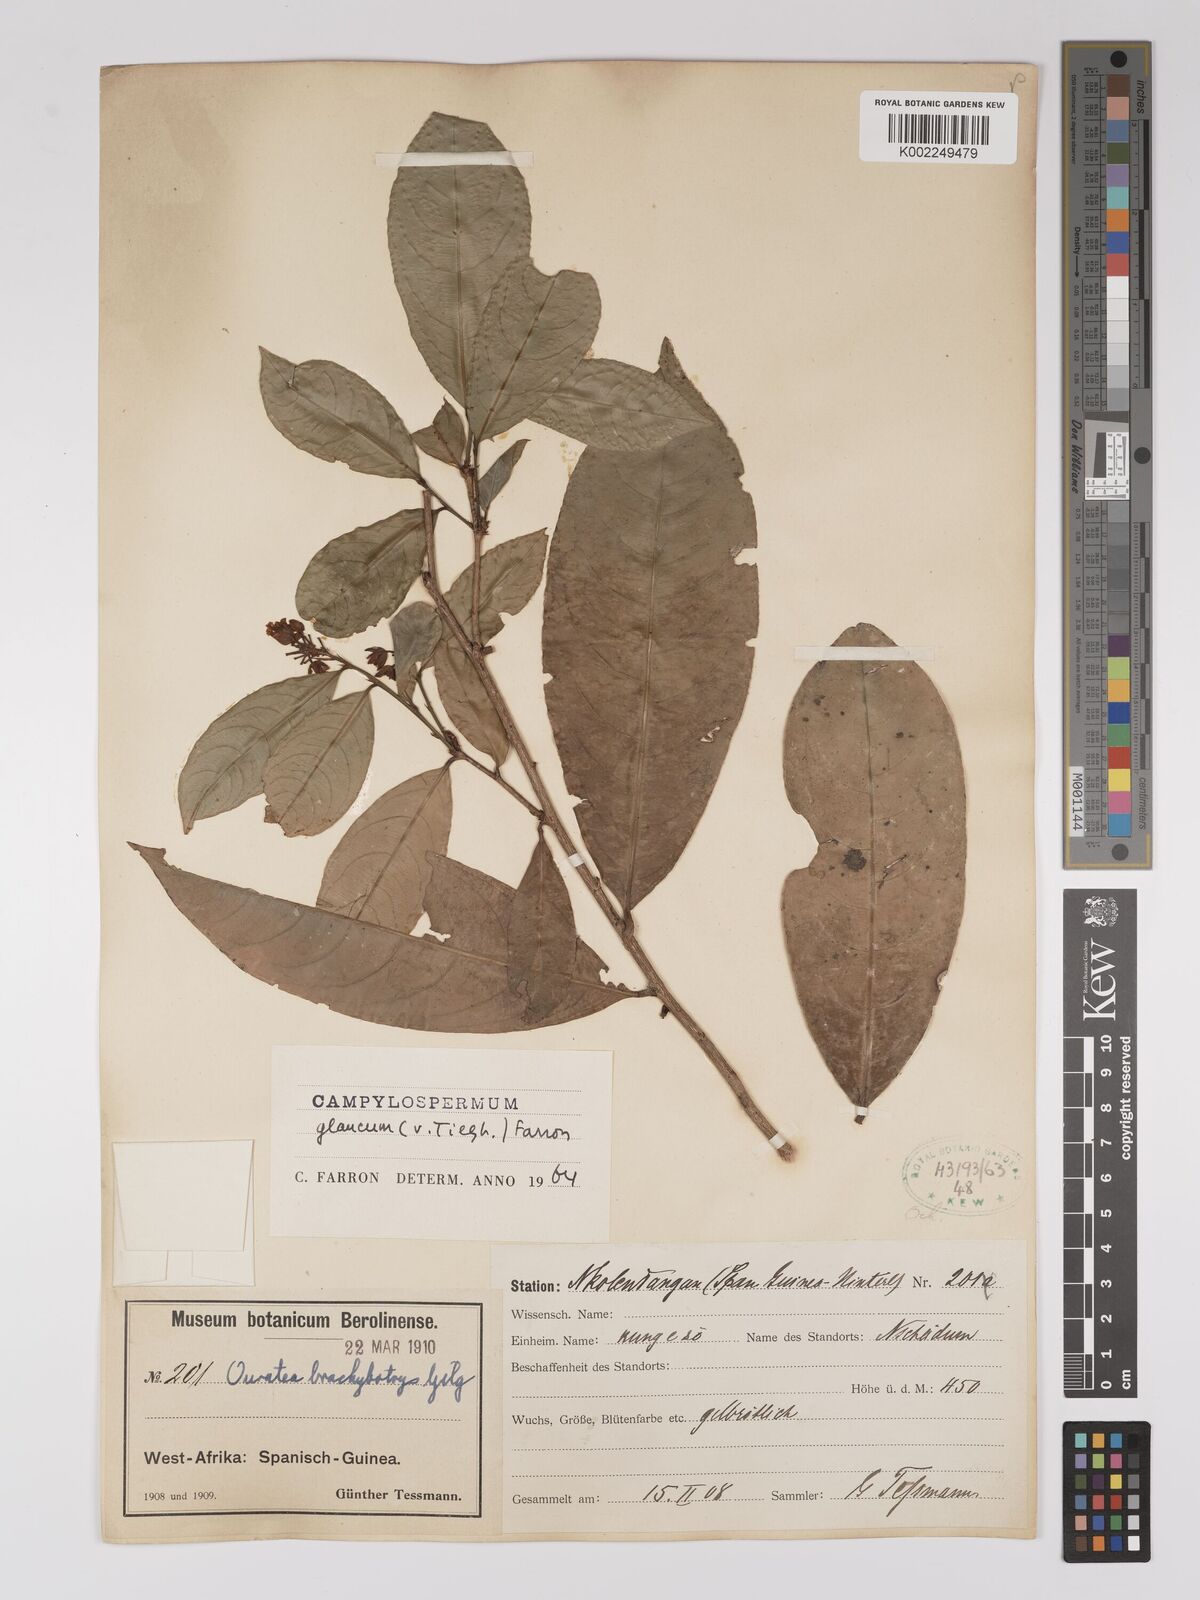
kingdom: Plantae
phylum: Tracheophyta
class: Magnoliopsida
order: Malpighiales
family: Ochnaceae
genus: Campylospermum
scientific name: Campylospermum glaucum
